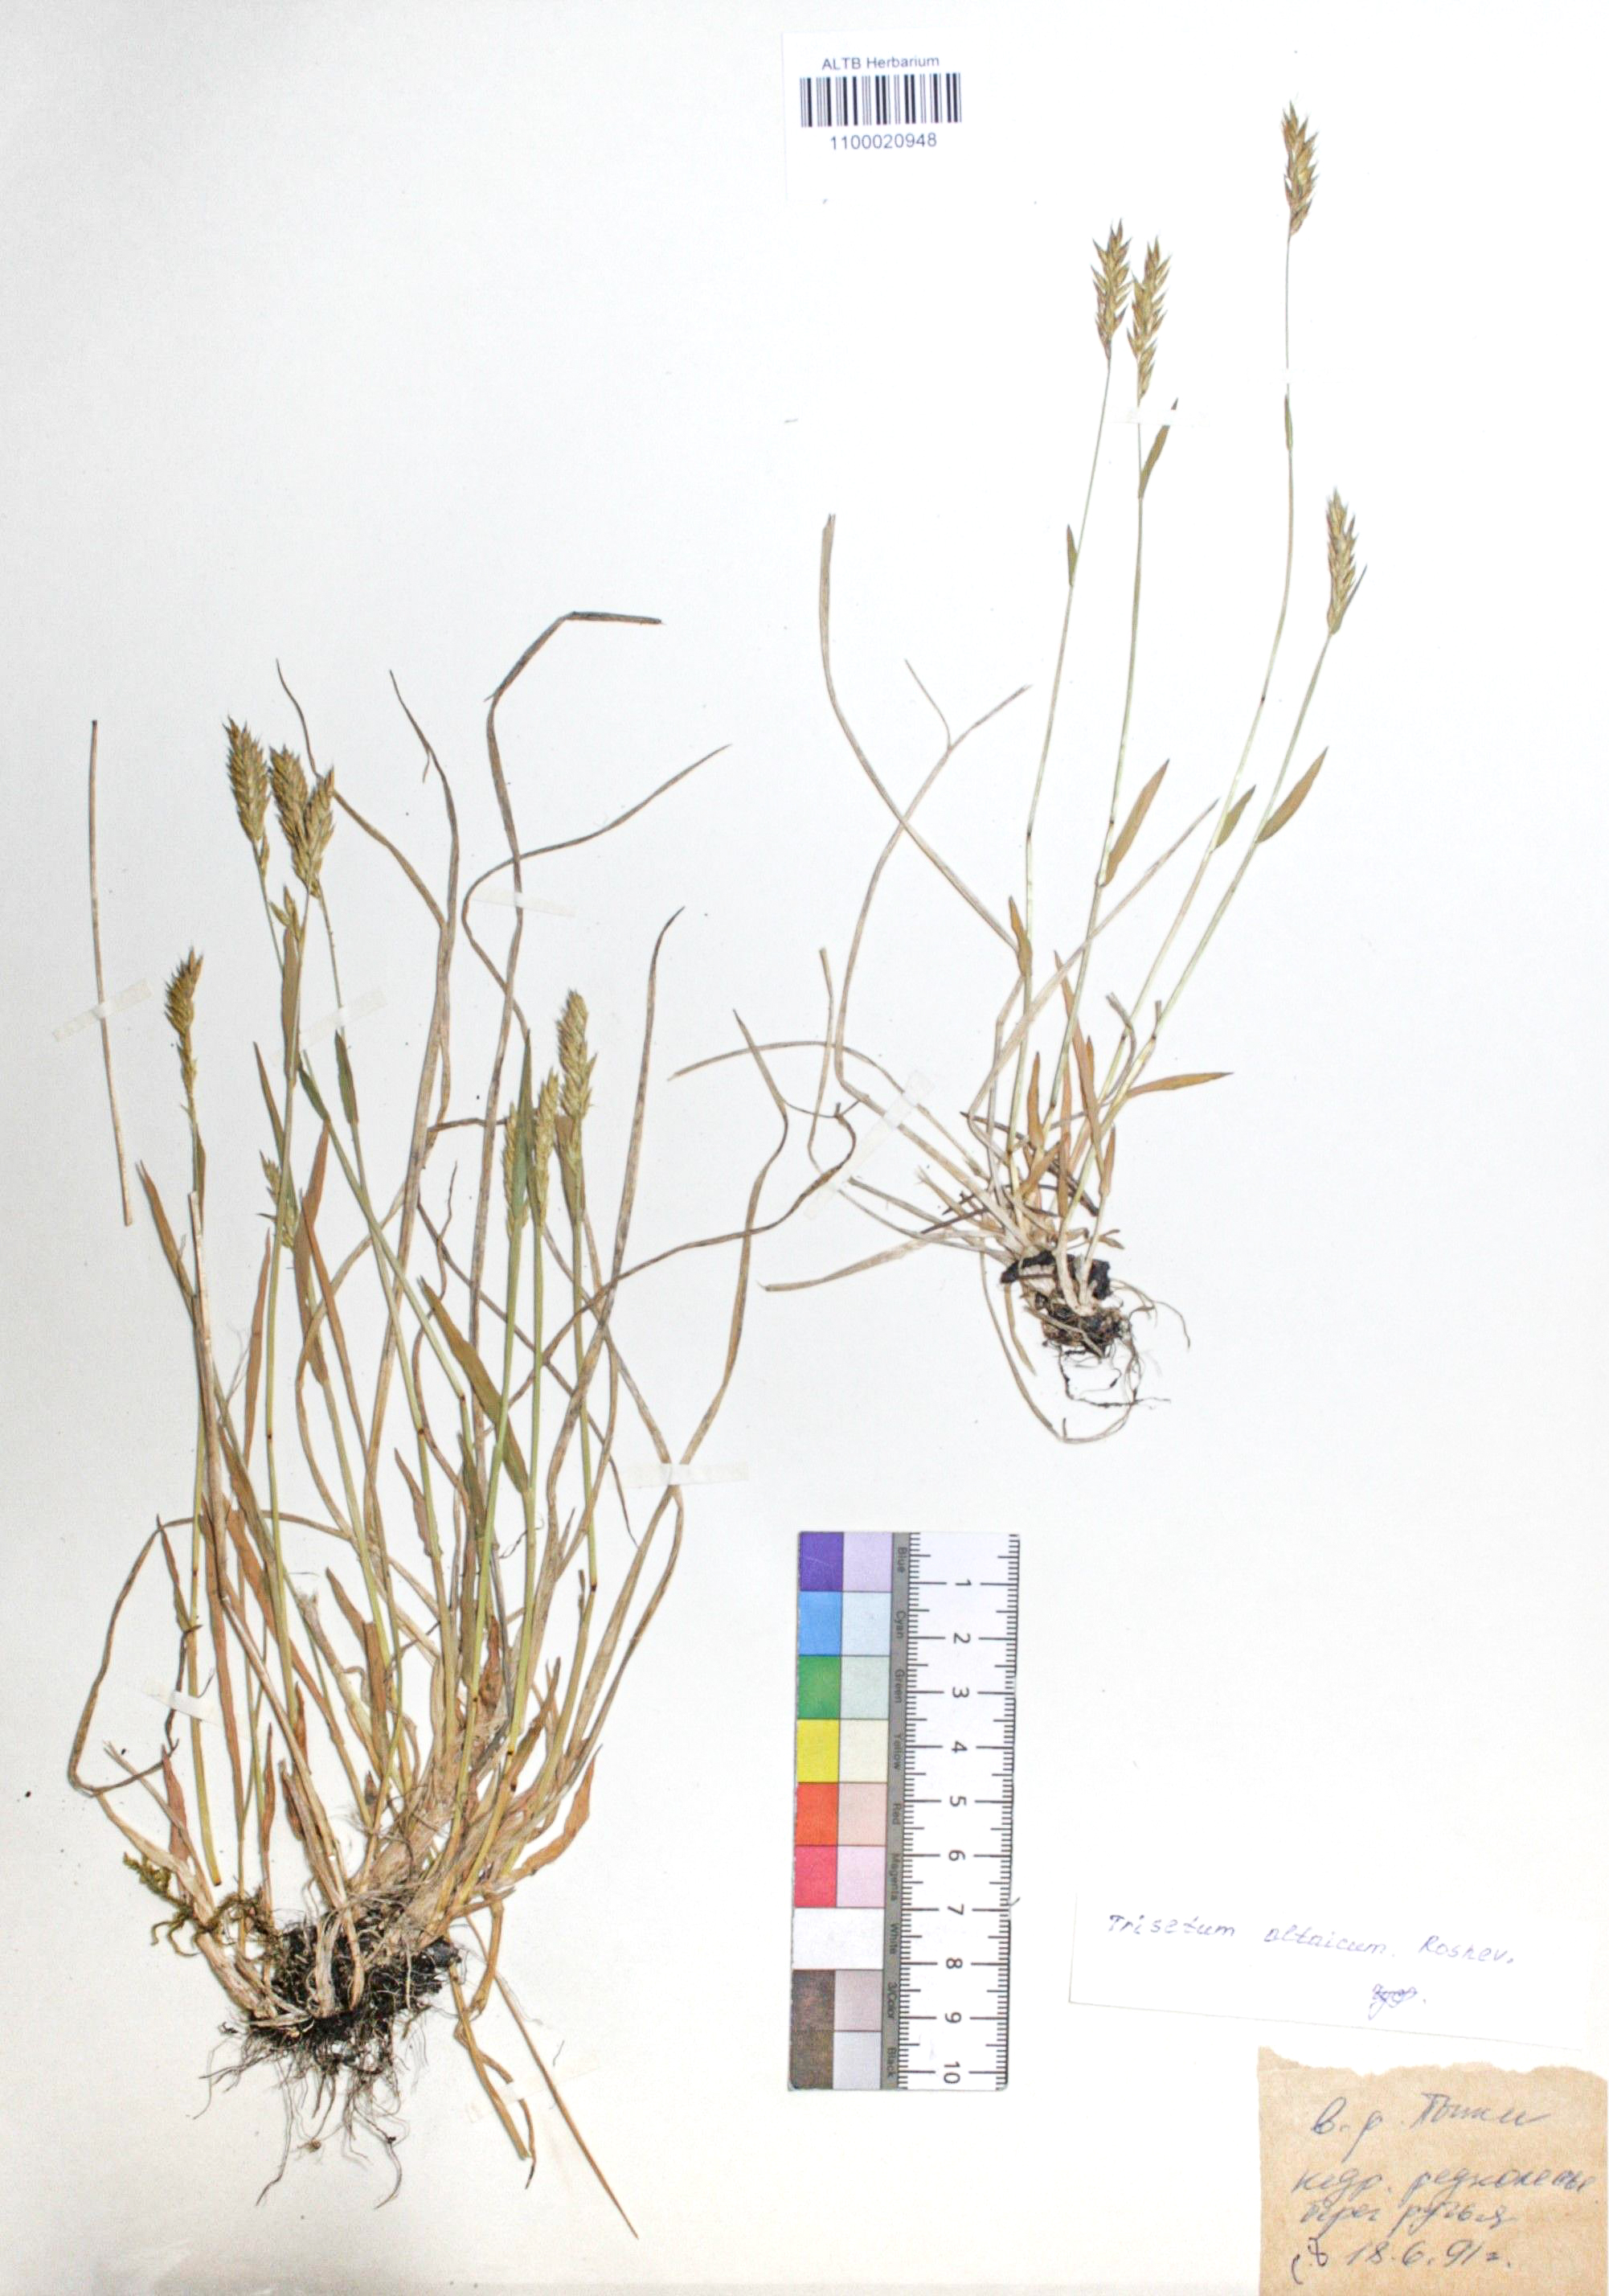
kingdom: Plantae
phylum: Tracheophyta
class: Liliopsida
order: Poales
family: Poaceae
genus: Trisetum
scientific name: Trisetum altaicum
